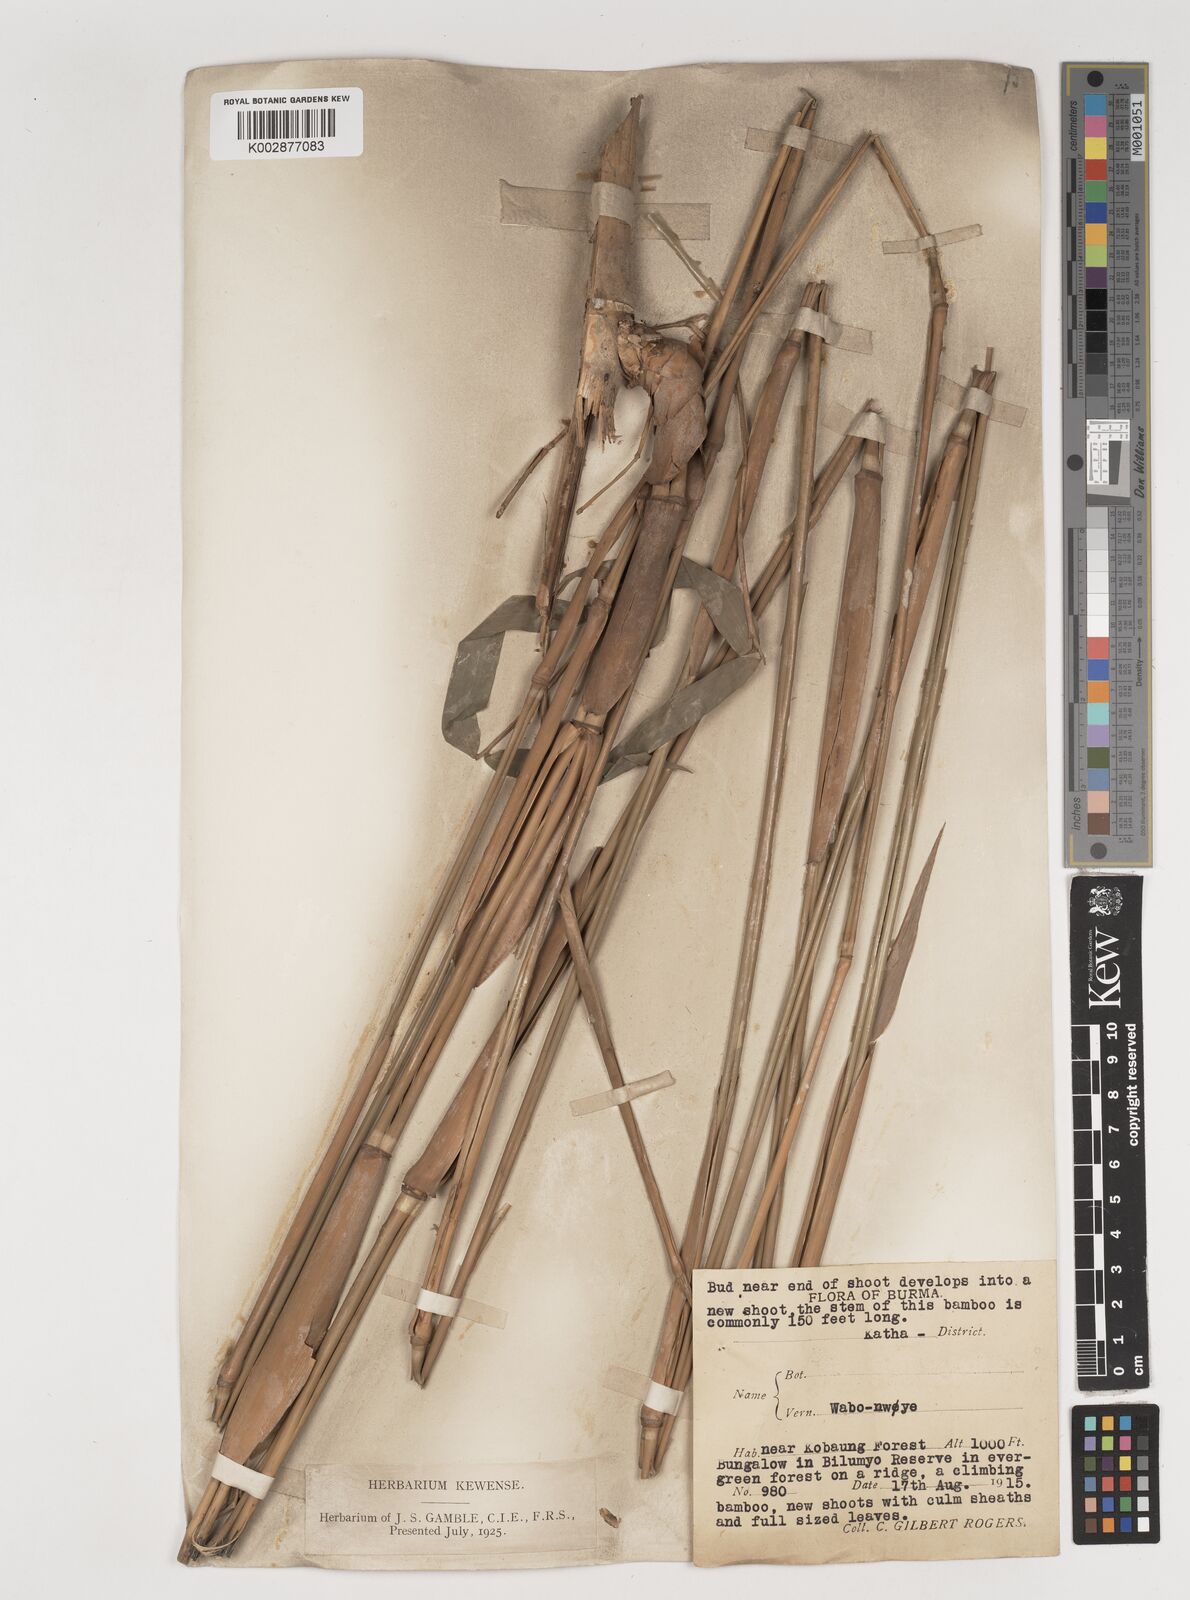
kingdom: Plantae
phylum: Tracheophyta
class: Liliopsida
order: Poales
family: Poaceae
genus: Bambusa
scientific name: Bambusa
